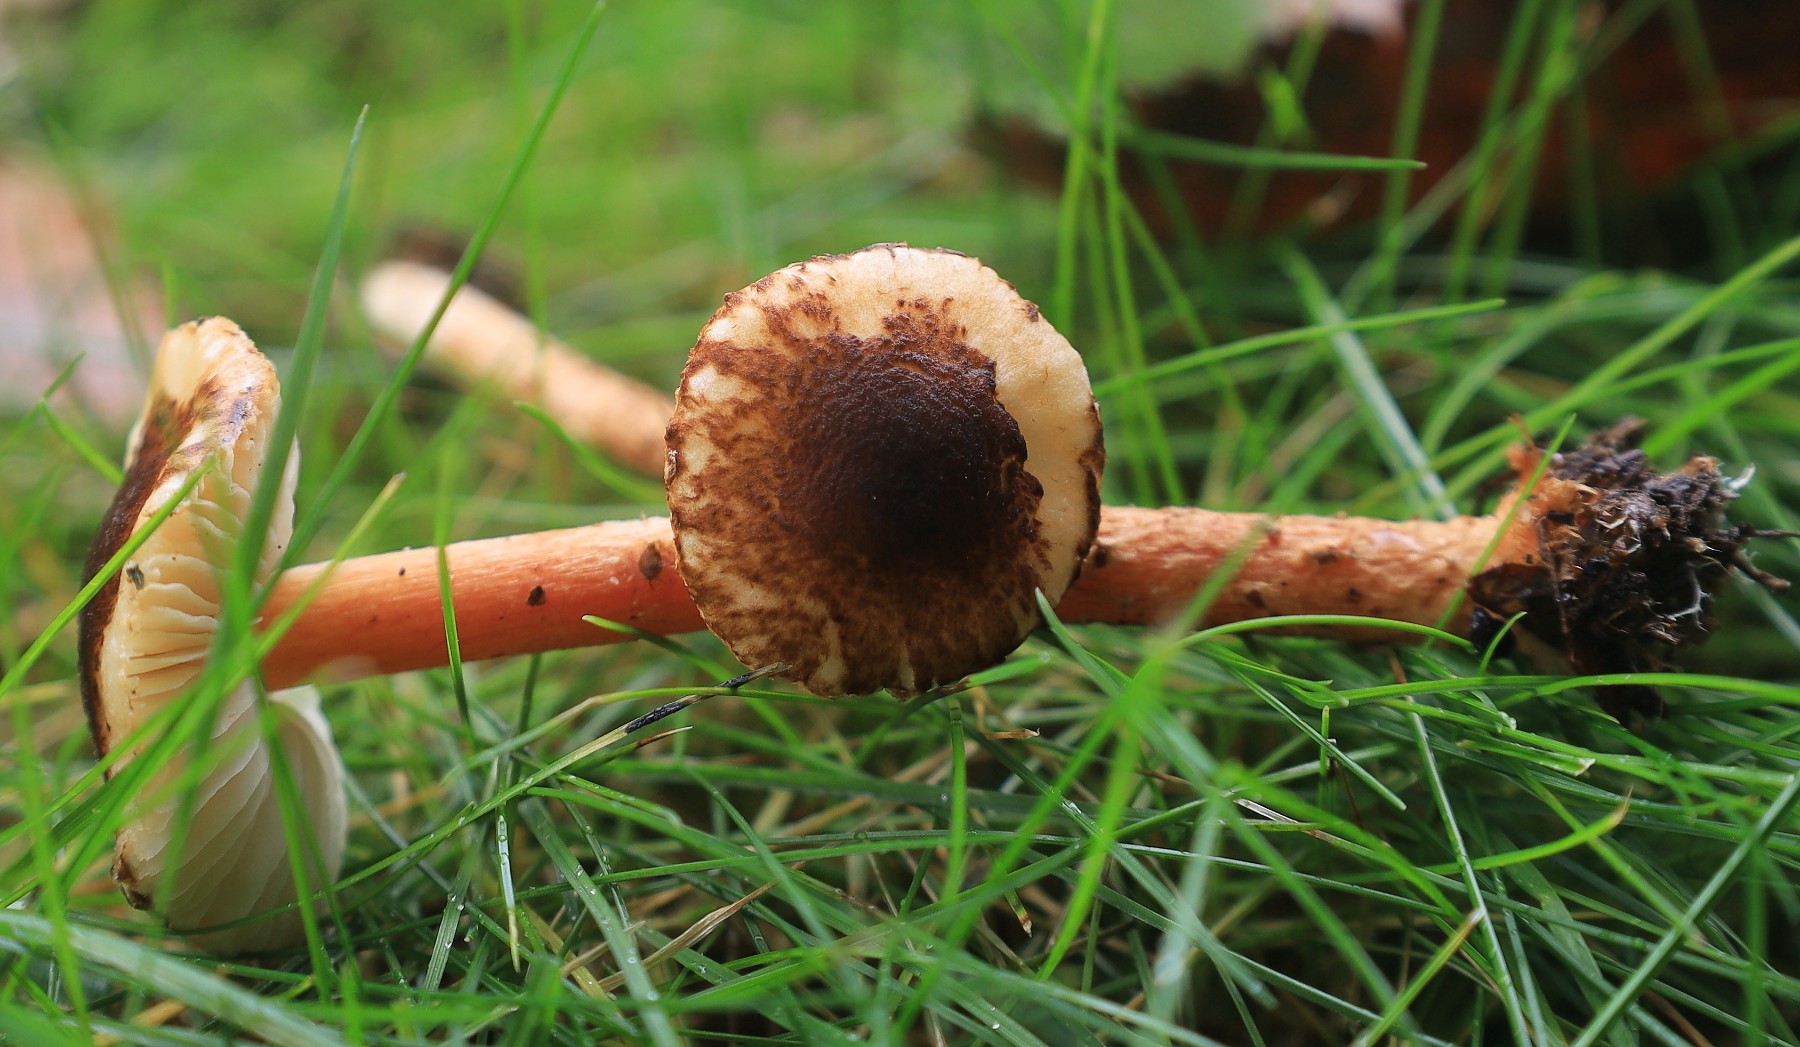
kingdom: Fungi
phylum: Basidiomycota
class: Agaricomycetes
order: Agaricales
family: Agaricaceae
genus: Lepiota
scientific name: Lepiota castanea
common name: kastaniebrun parasolhat
